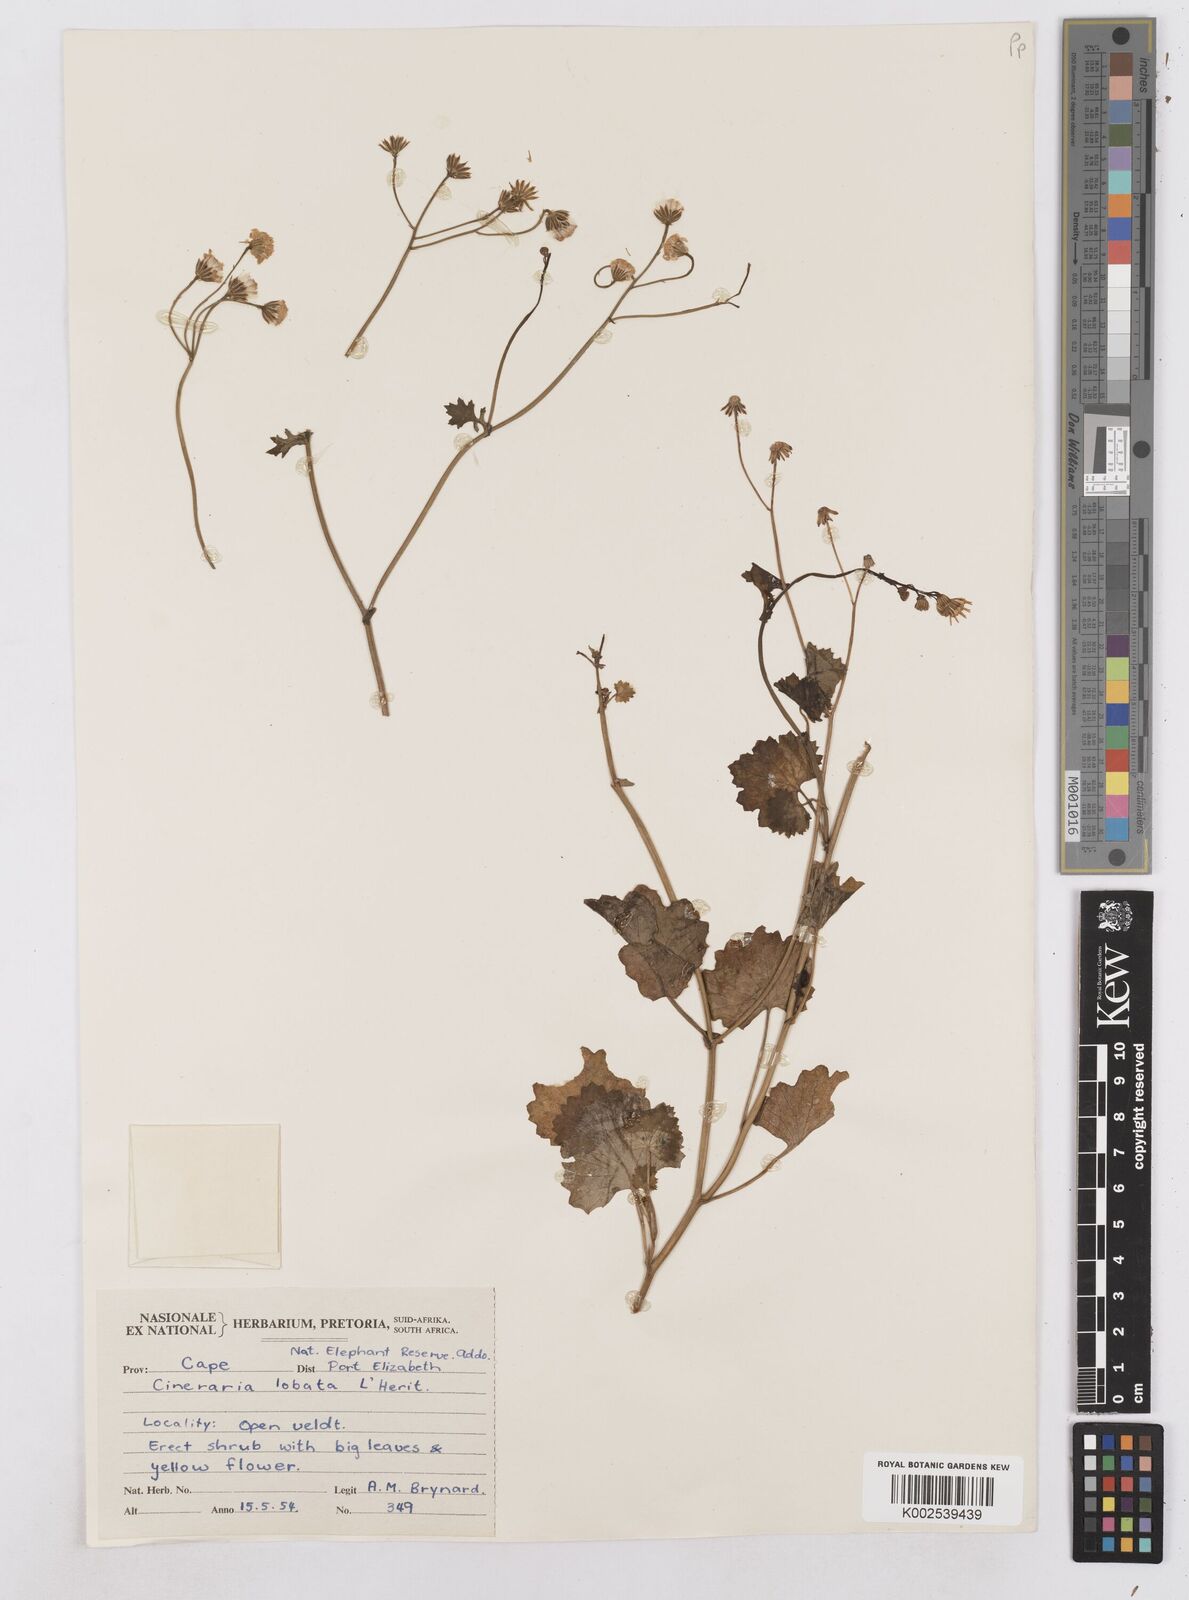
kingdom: Plantae
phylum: Tracheophyta
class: Magnoliopsida
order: Asterales
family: Asteraceae
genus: Cineraria
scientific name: Cineraria
